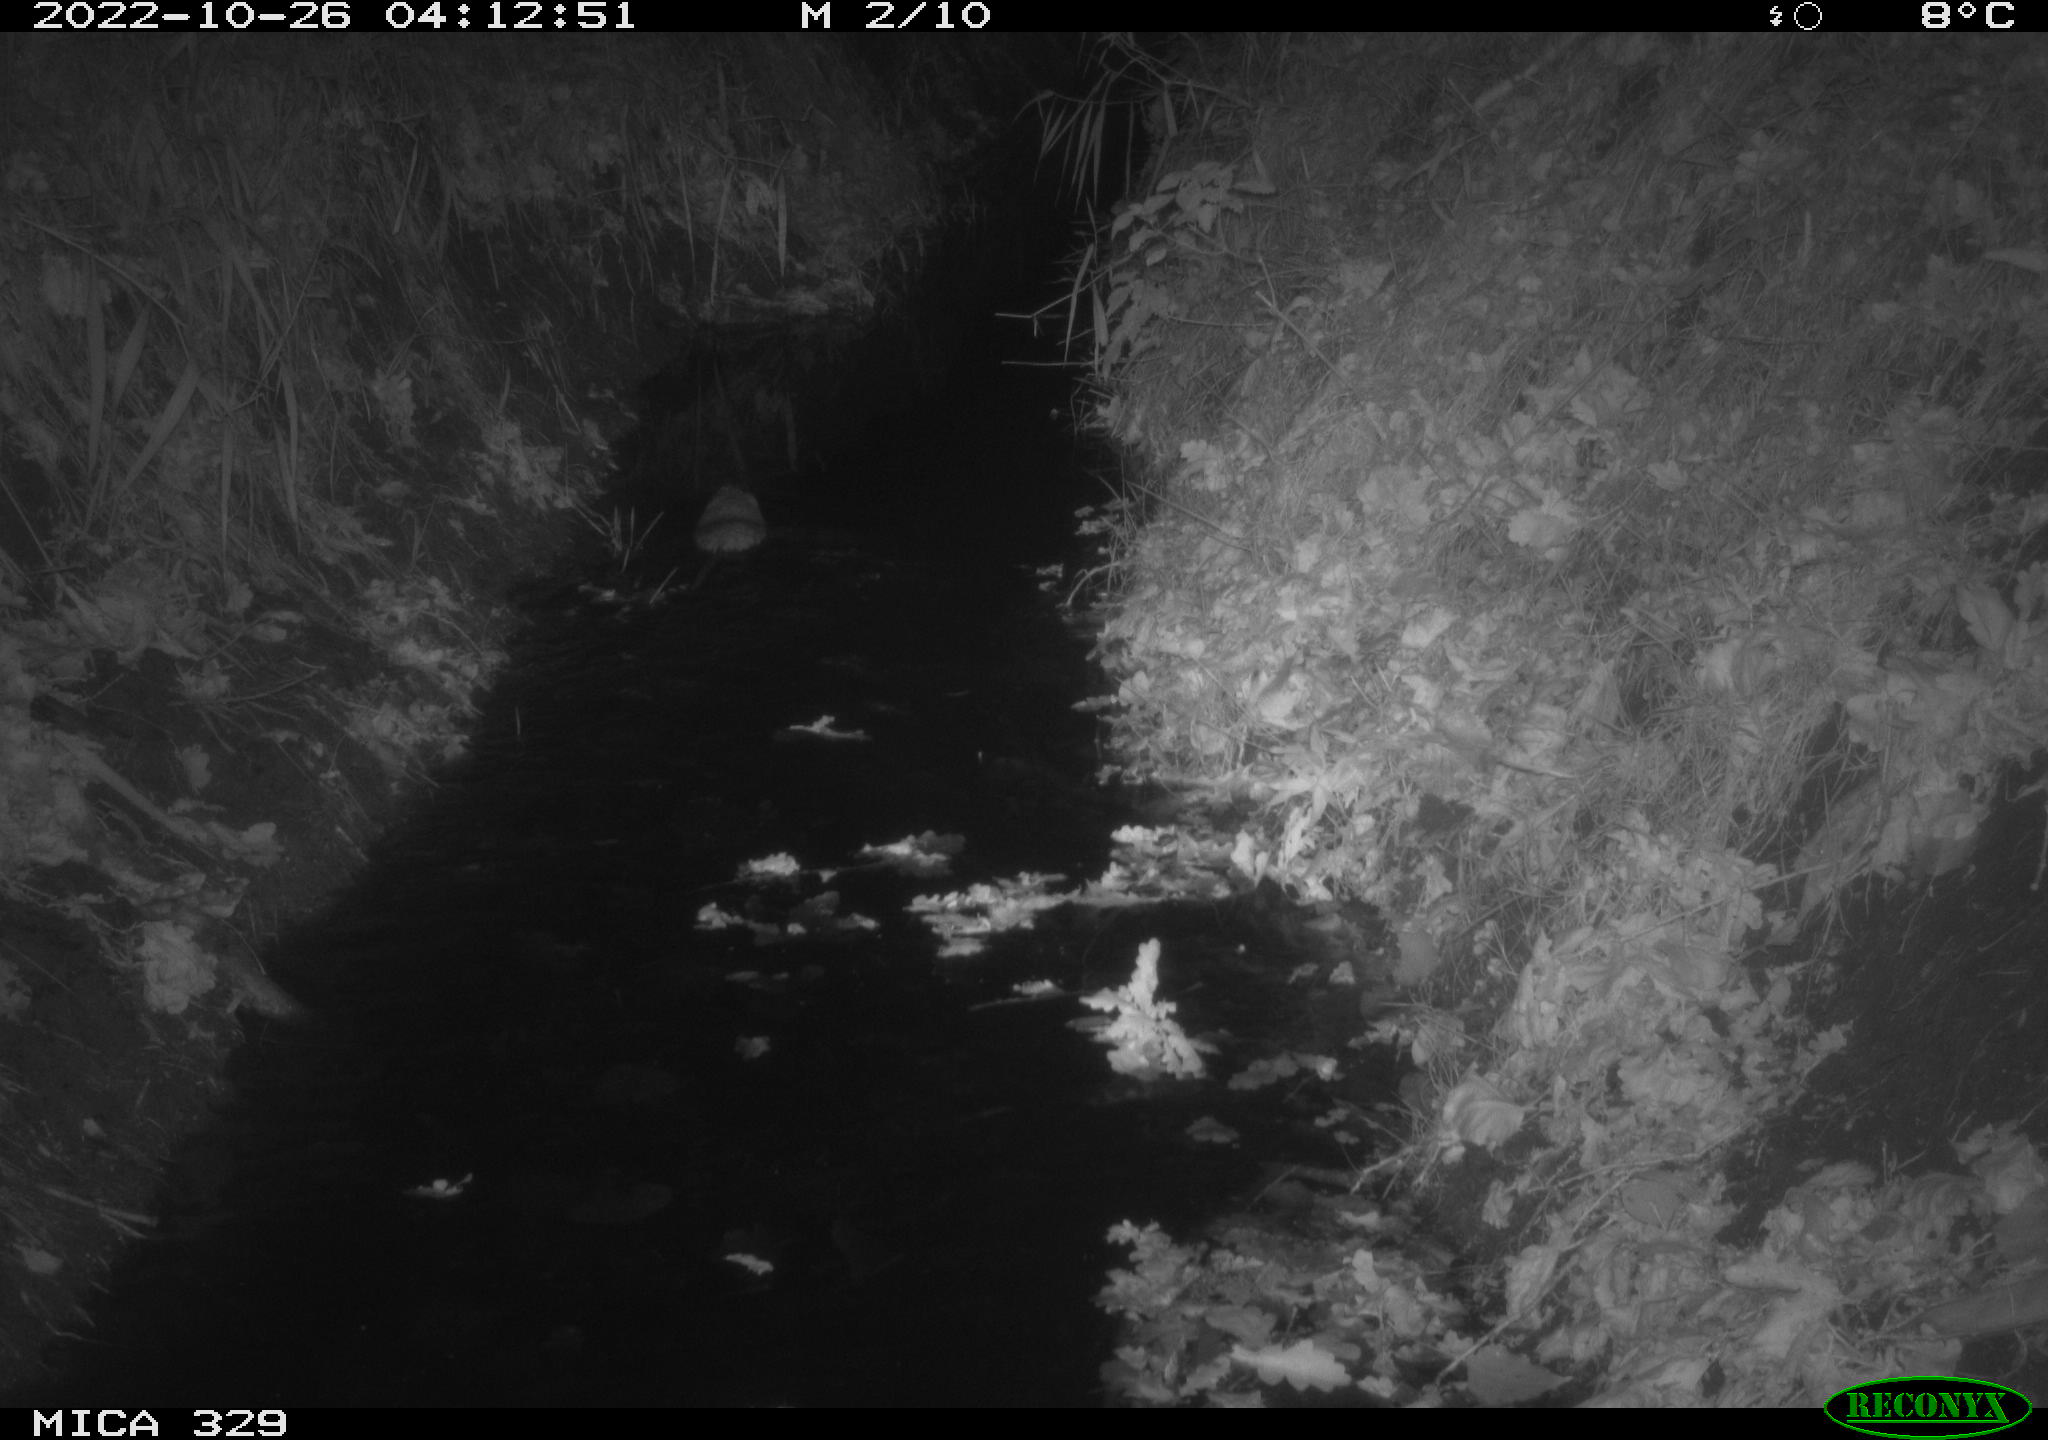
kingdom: Animalia
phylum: Chordata
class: Mammalia
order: Rodentia
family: Cricetidae
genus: Ondatra
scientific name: Ondatra zibethicus
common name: Muskrat
